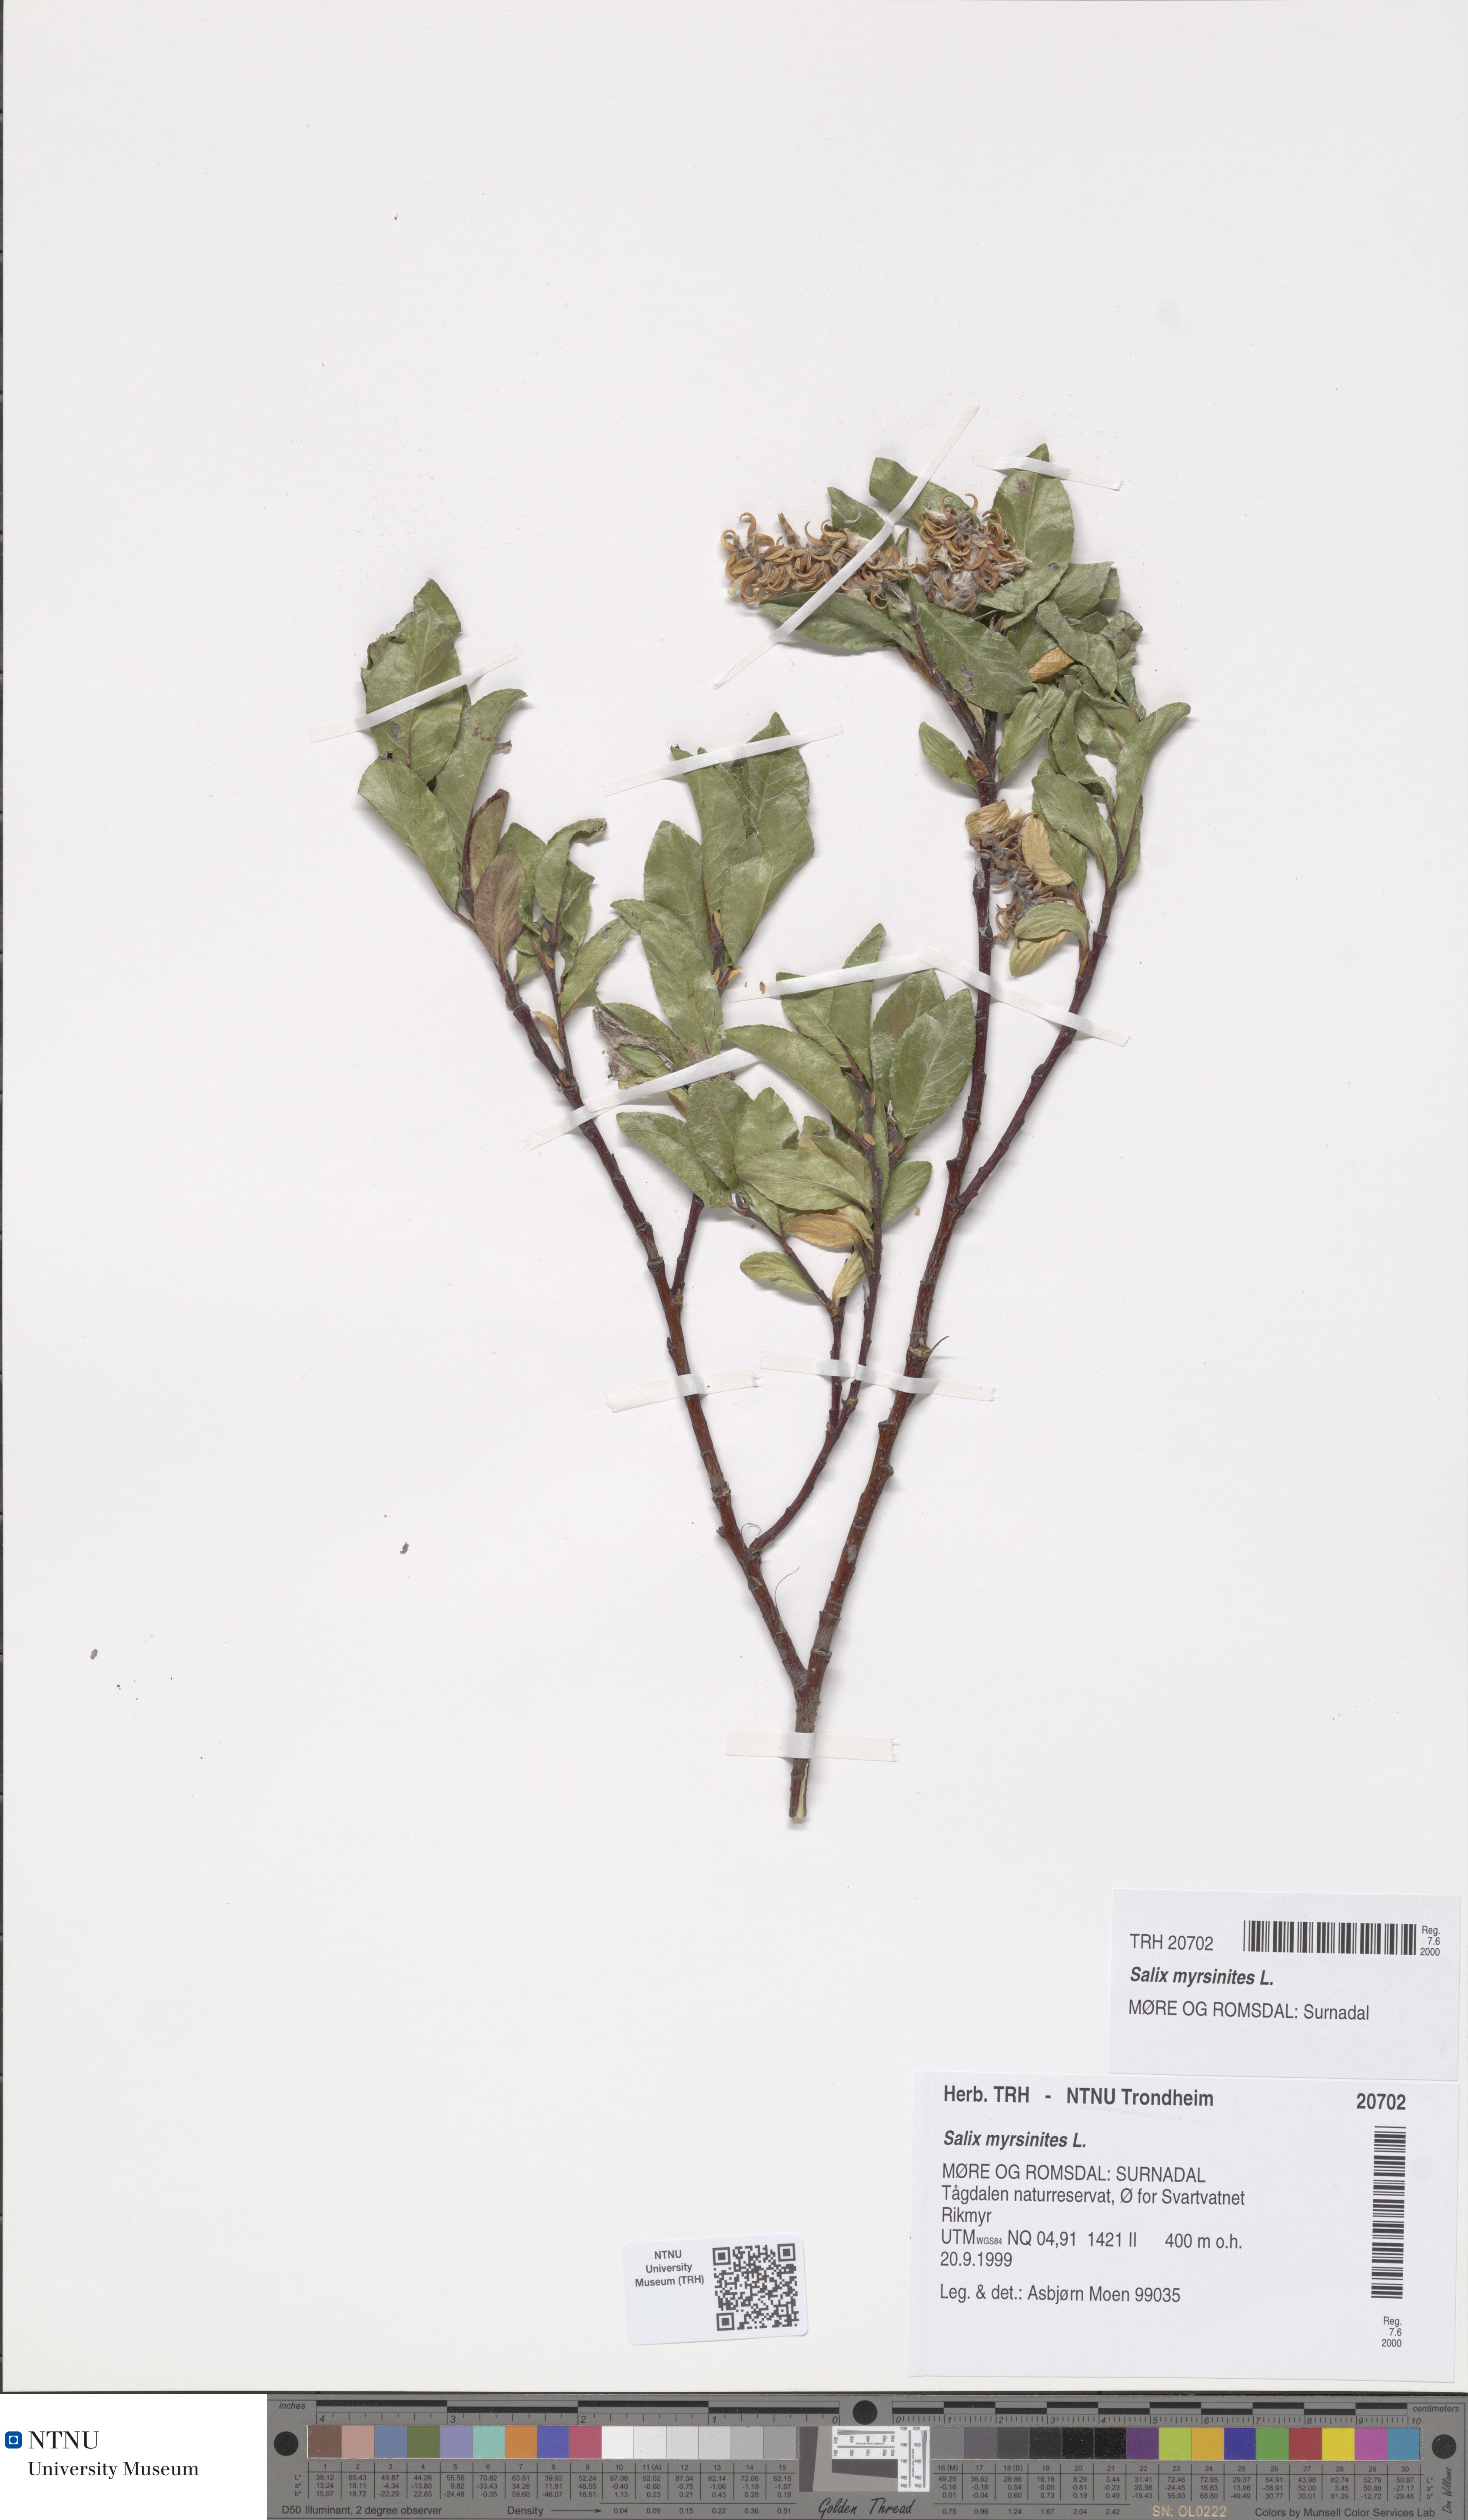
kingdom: Plantae
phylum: Tracheophyta
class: Magnoliopsida
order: Malpighiales
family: Salicaceae
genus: Salix
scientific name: Salix myrsinites
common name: Myrtle willow
